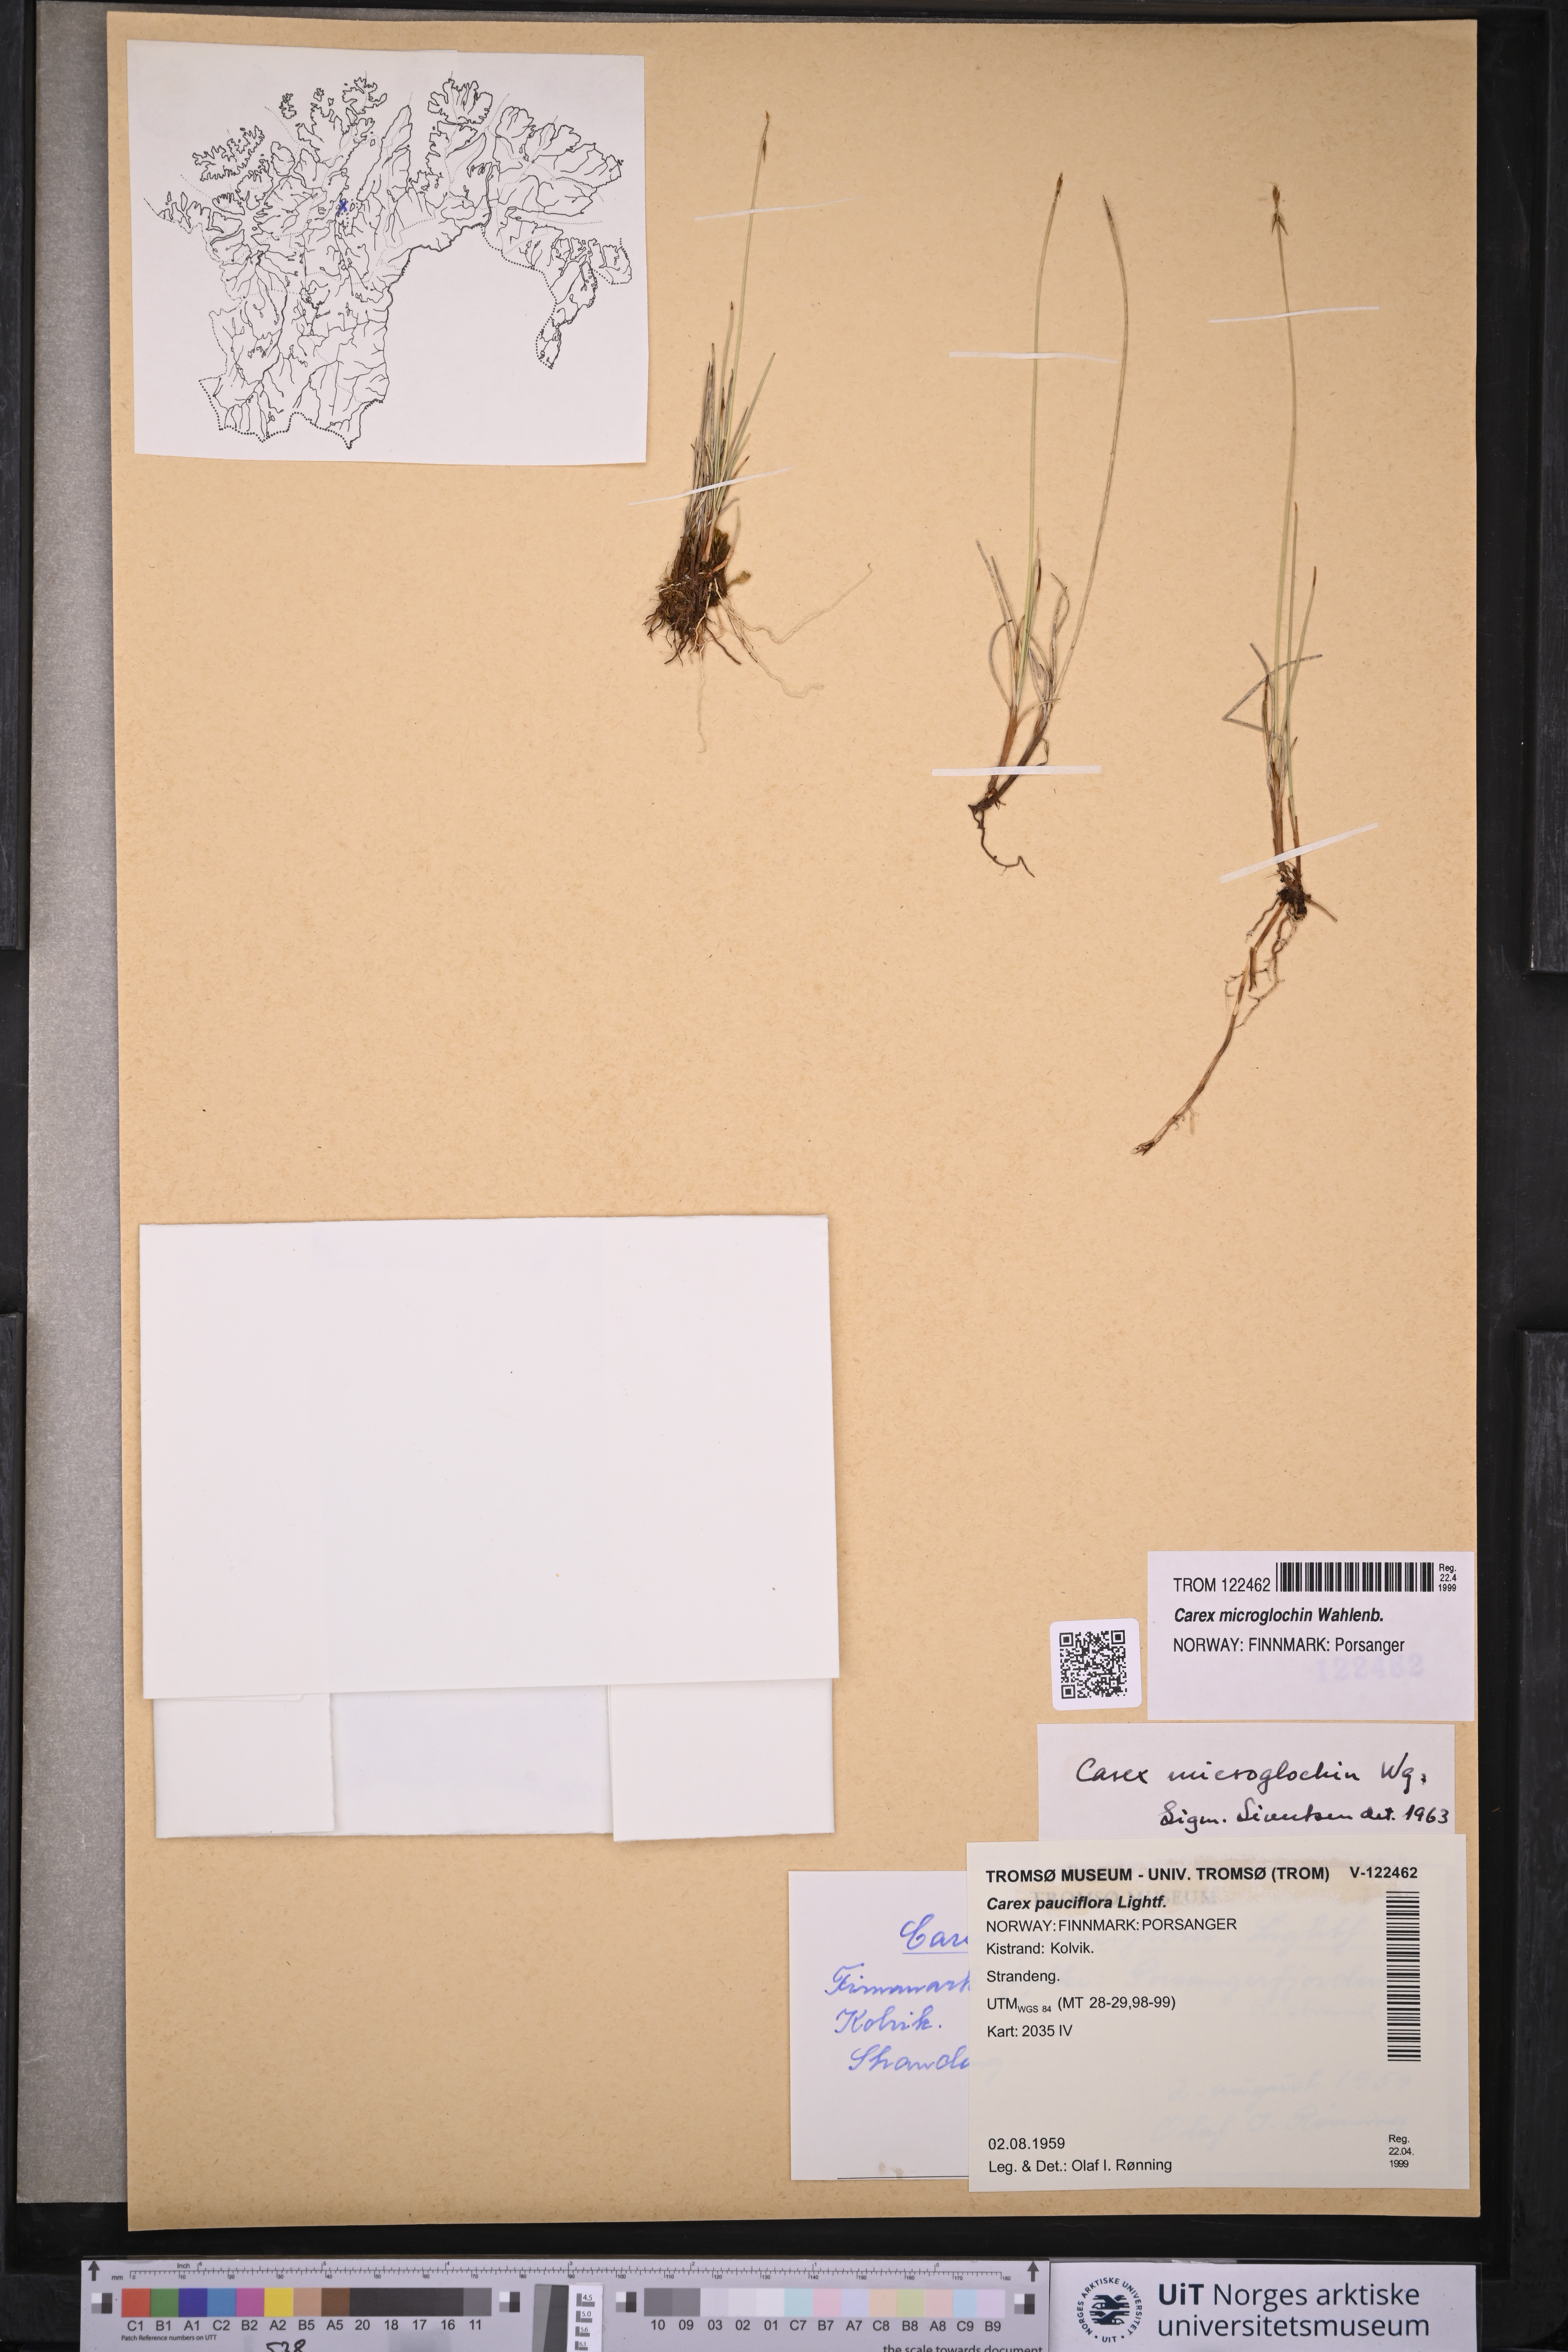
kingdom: Plantae
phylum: Tracheophyta
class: Liliopsida
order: Poales
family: Cyperaceae
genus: Carex
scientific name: Carex microglochin
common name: Bristle sedge
